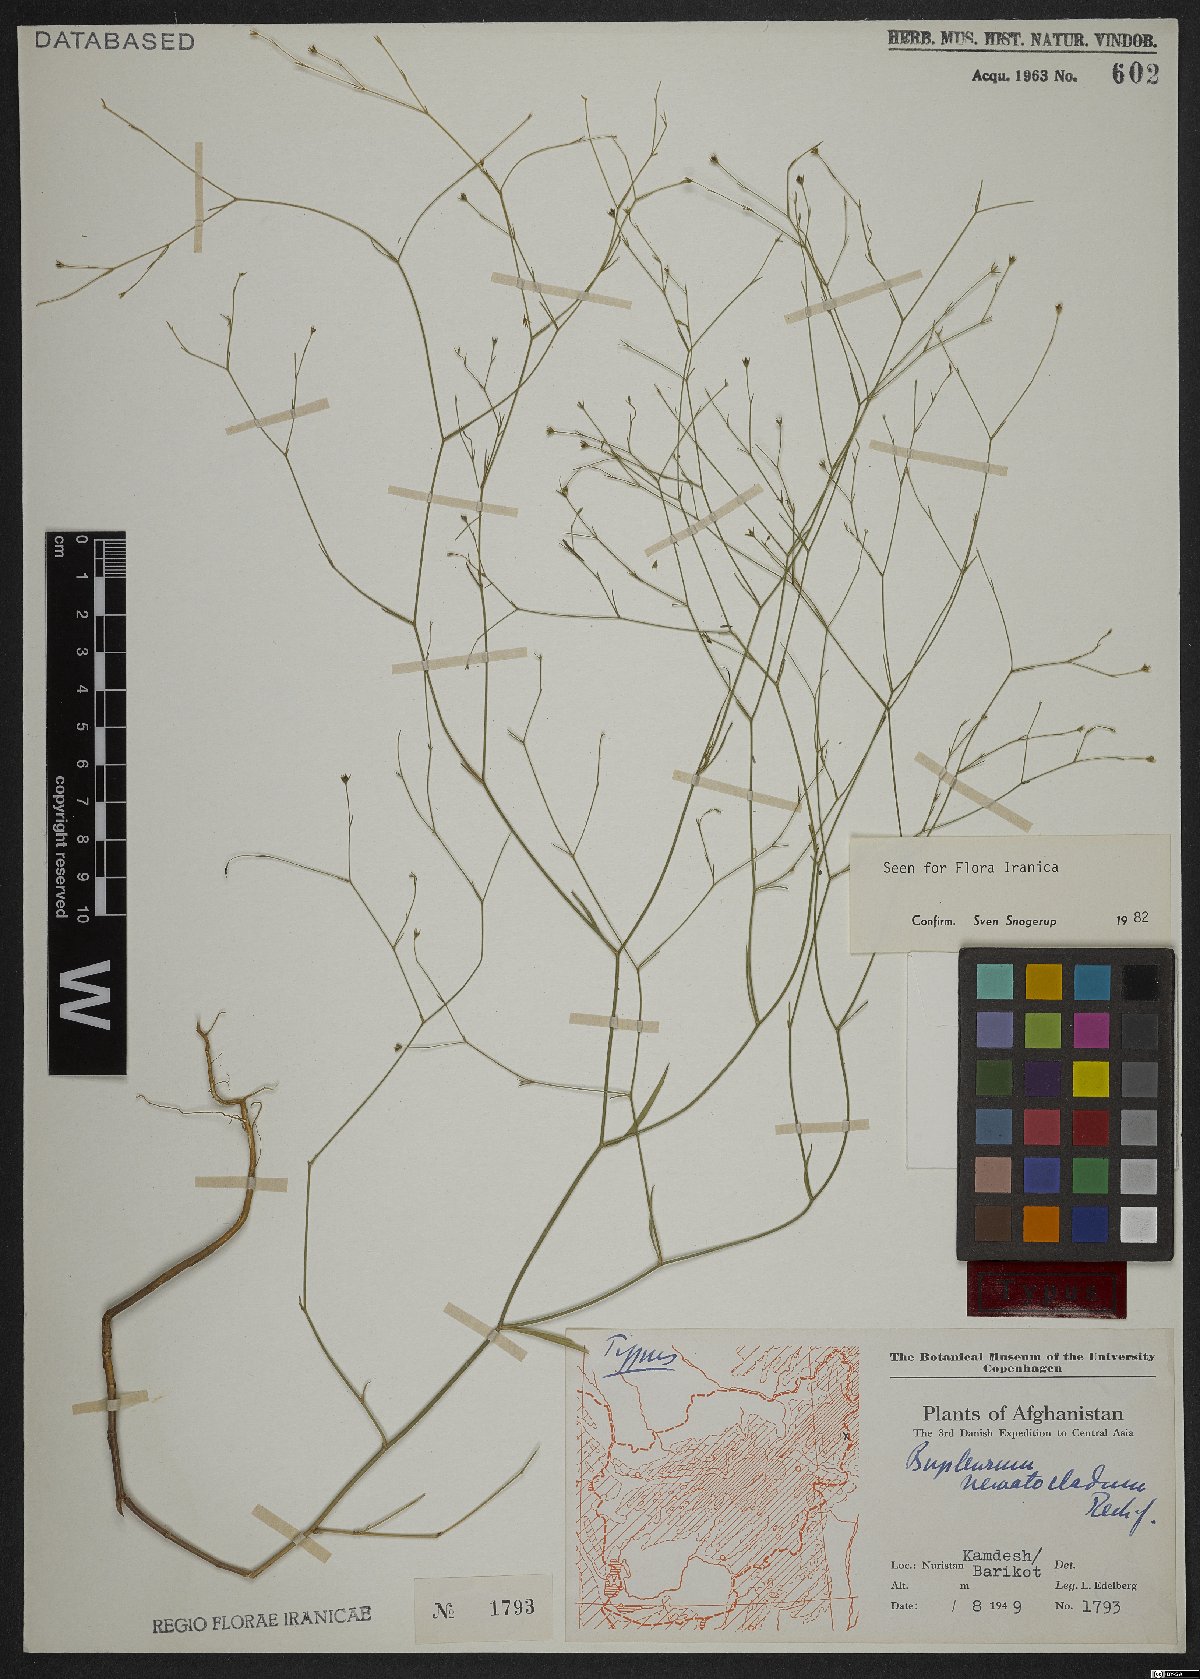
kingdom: Plantae
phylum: Tracheophyta
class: Magnoliopsida
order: Apiales
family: Apiaceae
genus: Bupleurum
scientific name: Bupleurum subuniflorum
